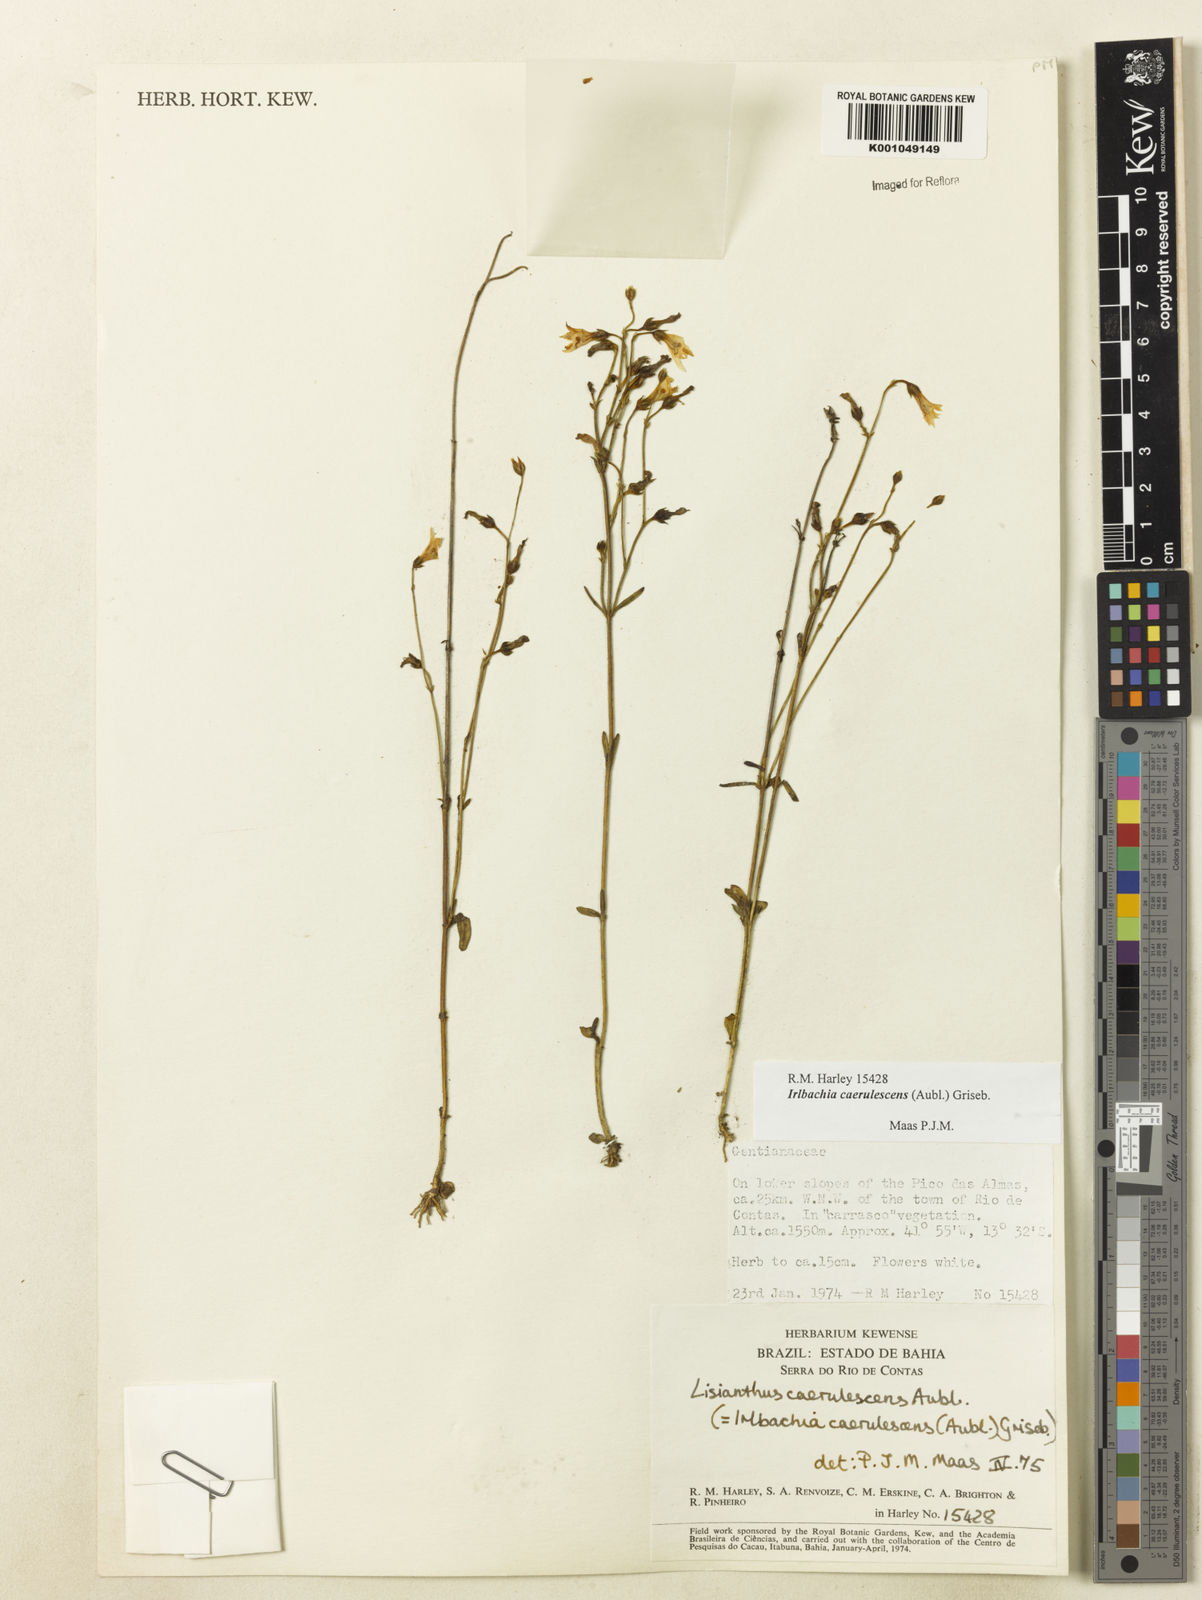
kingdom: Plantae
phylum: Tracheophyta
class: Magnoliopsida
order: Gentianales
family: Gentianaceae
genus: Tetrapollinia
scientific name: Tetrapollinia caerulescens
